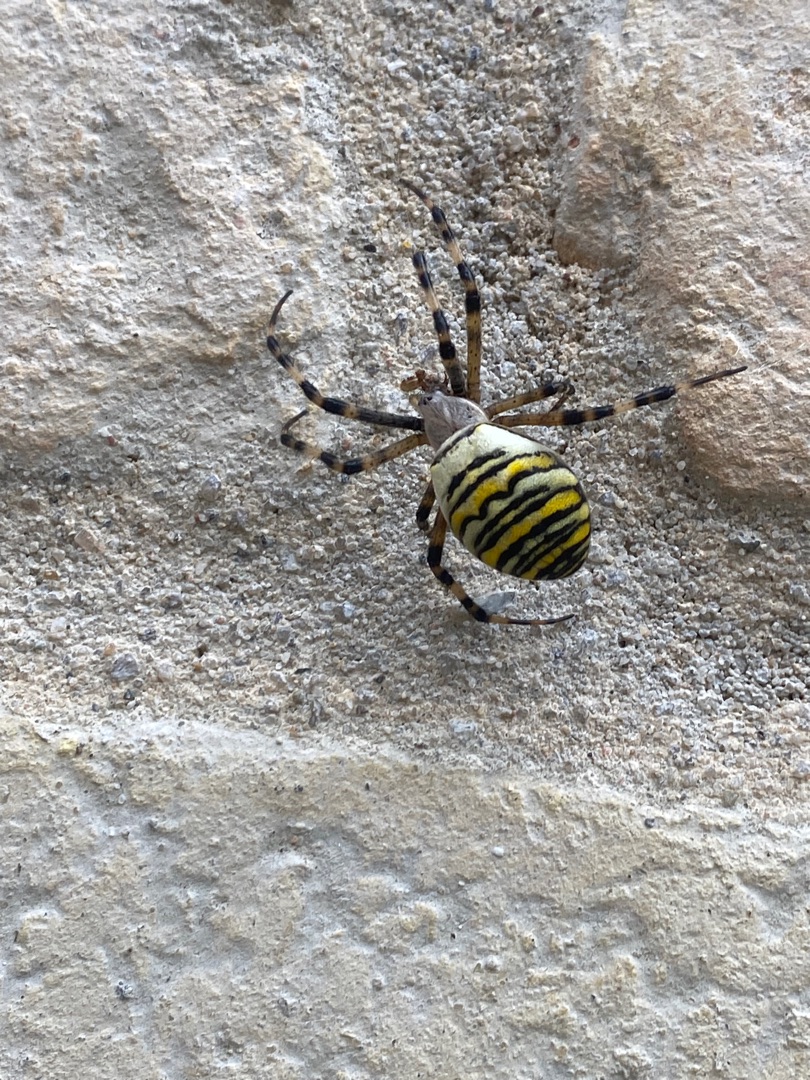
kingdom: Animalia
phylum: Arthropoda
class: Arachnida
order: Araneae
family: Araneidae
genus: Argiope
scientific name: Argiope bruennichi
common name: Hvepseedderkop
